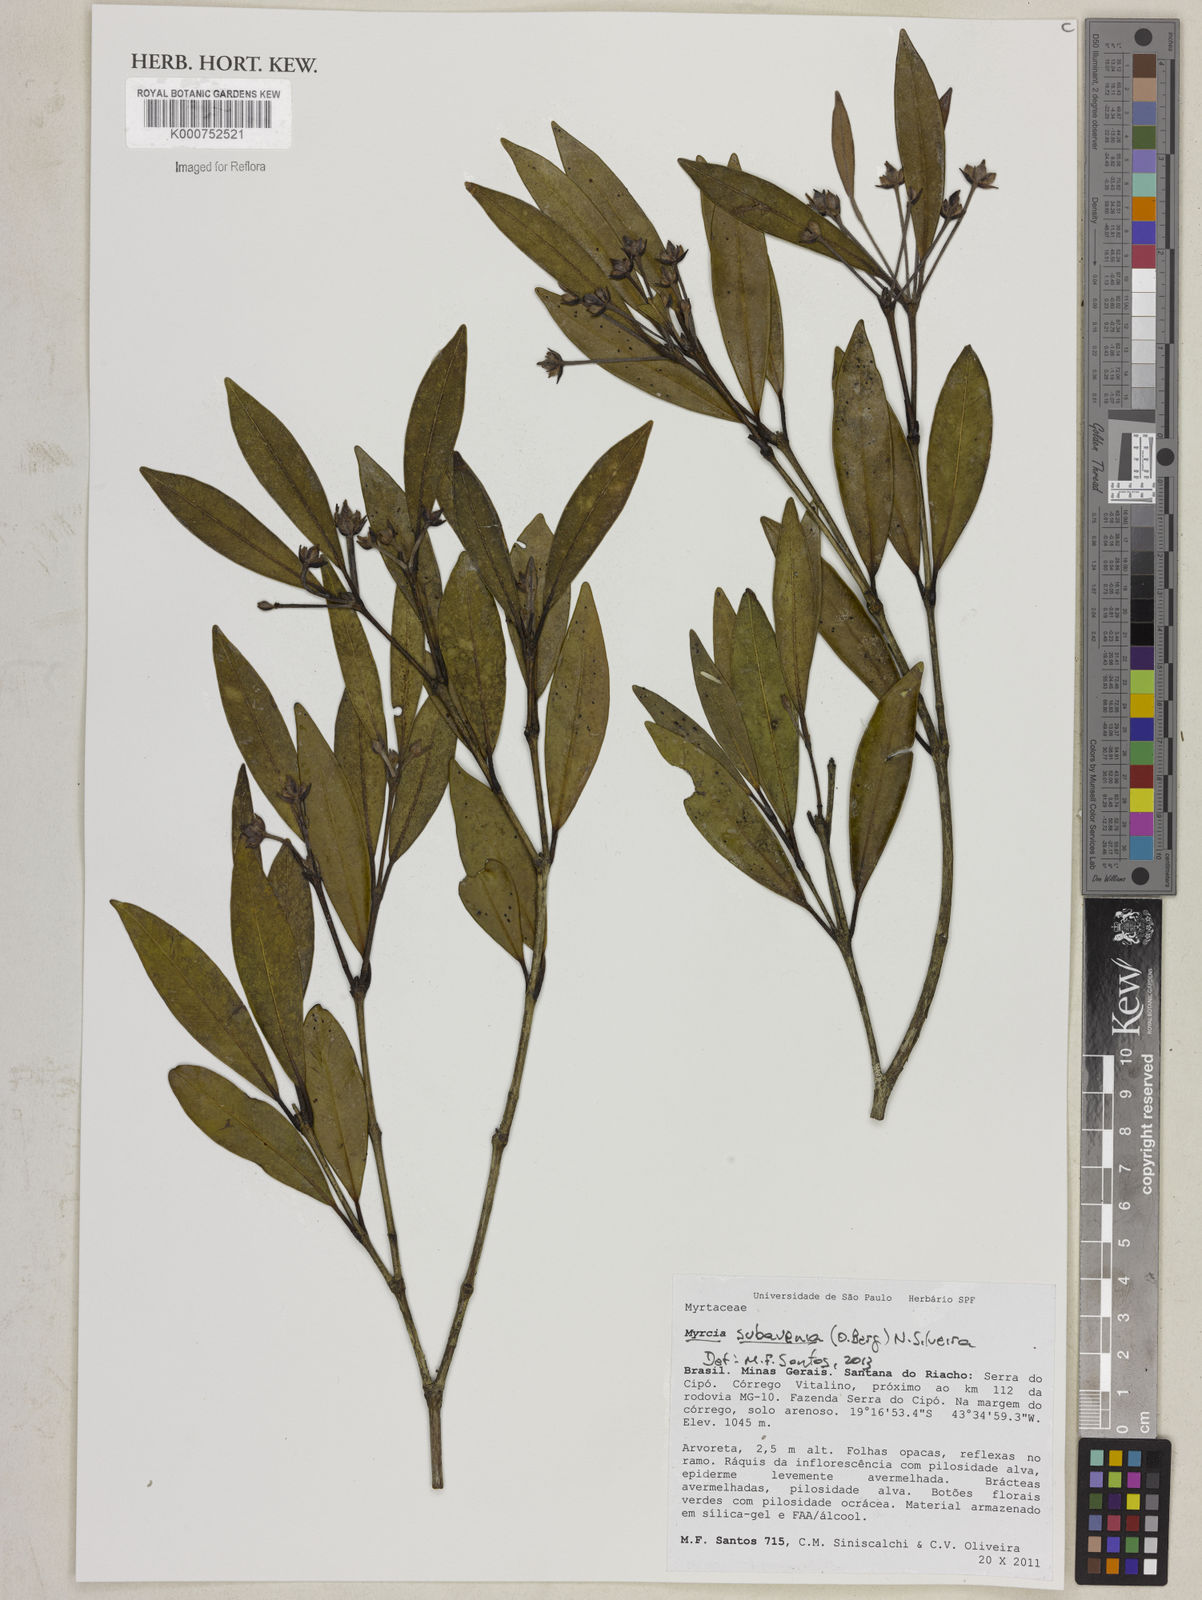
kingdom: Plantae
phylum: Tracheophyta
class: Magnoliopsida
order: Myrtales
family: Myrtaceae
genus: Myrcia
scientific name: Myrcia subavenia
